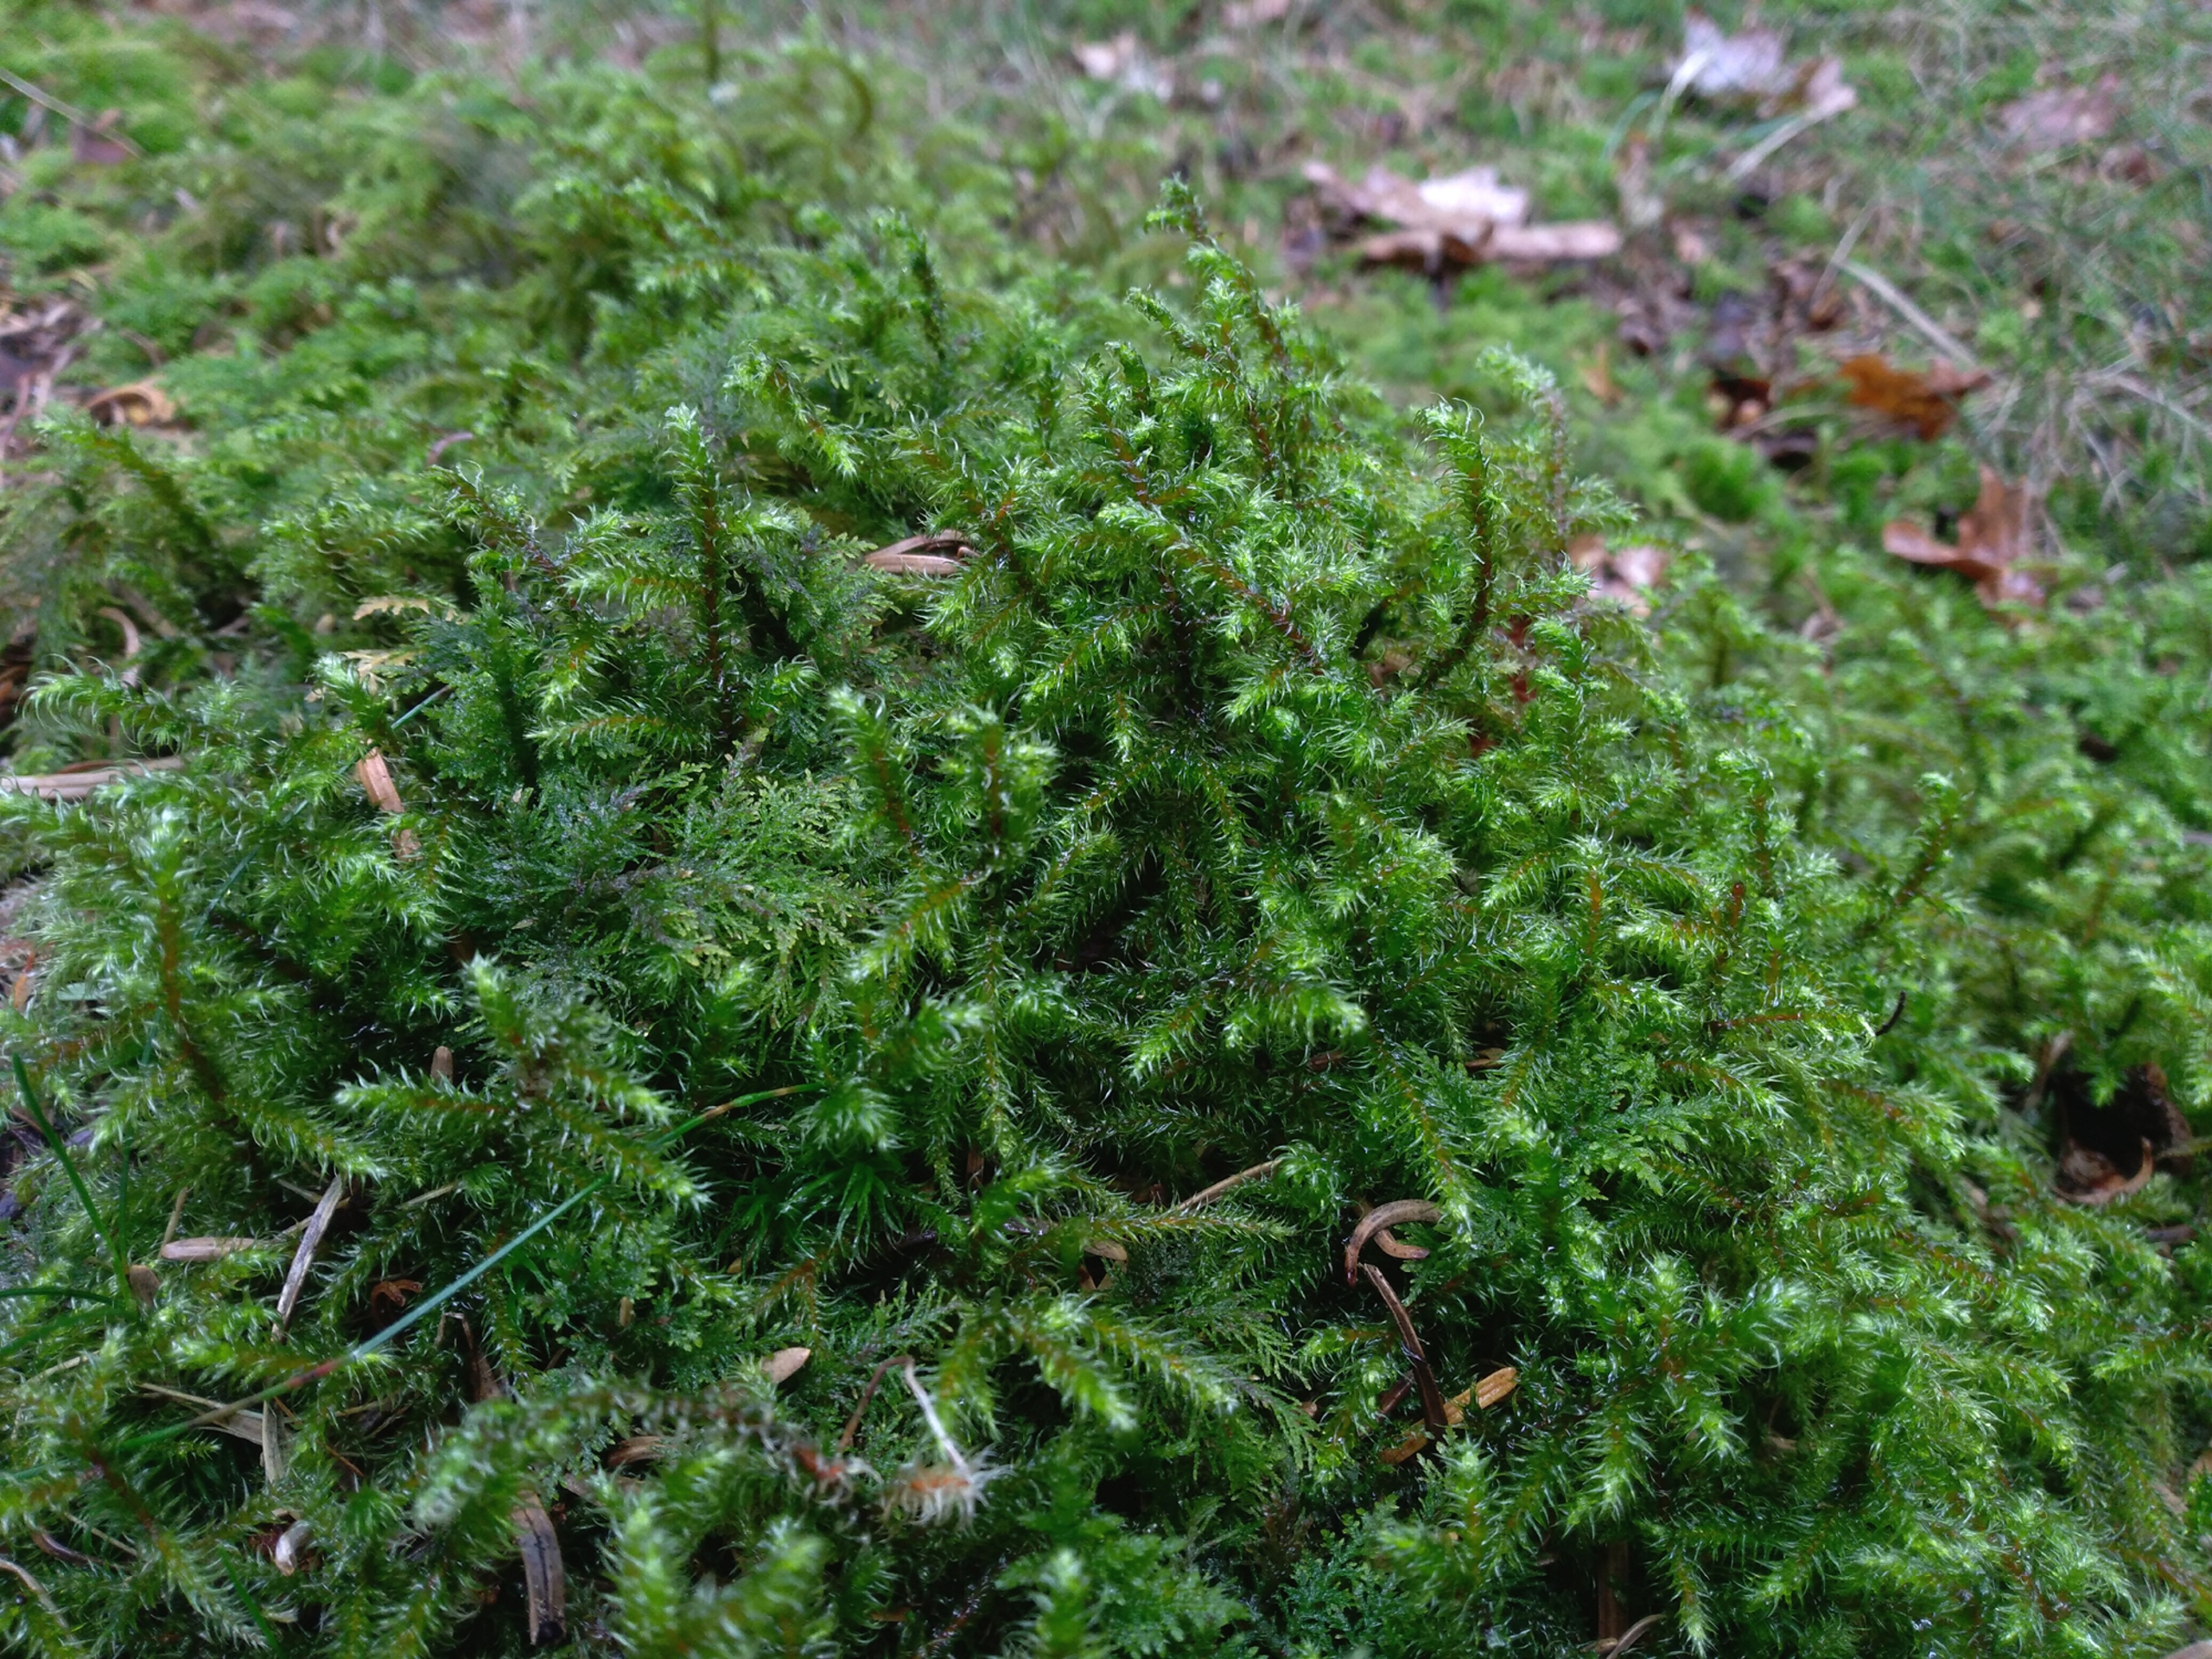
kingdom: Plantae
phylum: Bryophyta
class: Bryopsida
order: Hypnales
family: Hylocomiaceae
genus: Rhytidiadelphus
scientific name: Rhytidiadelphus loreus
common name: Ulvefod-kransemos
